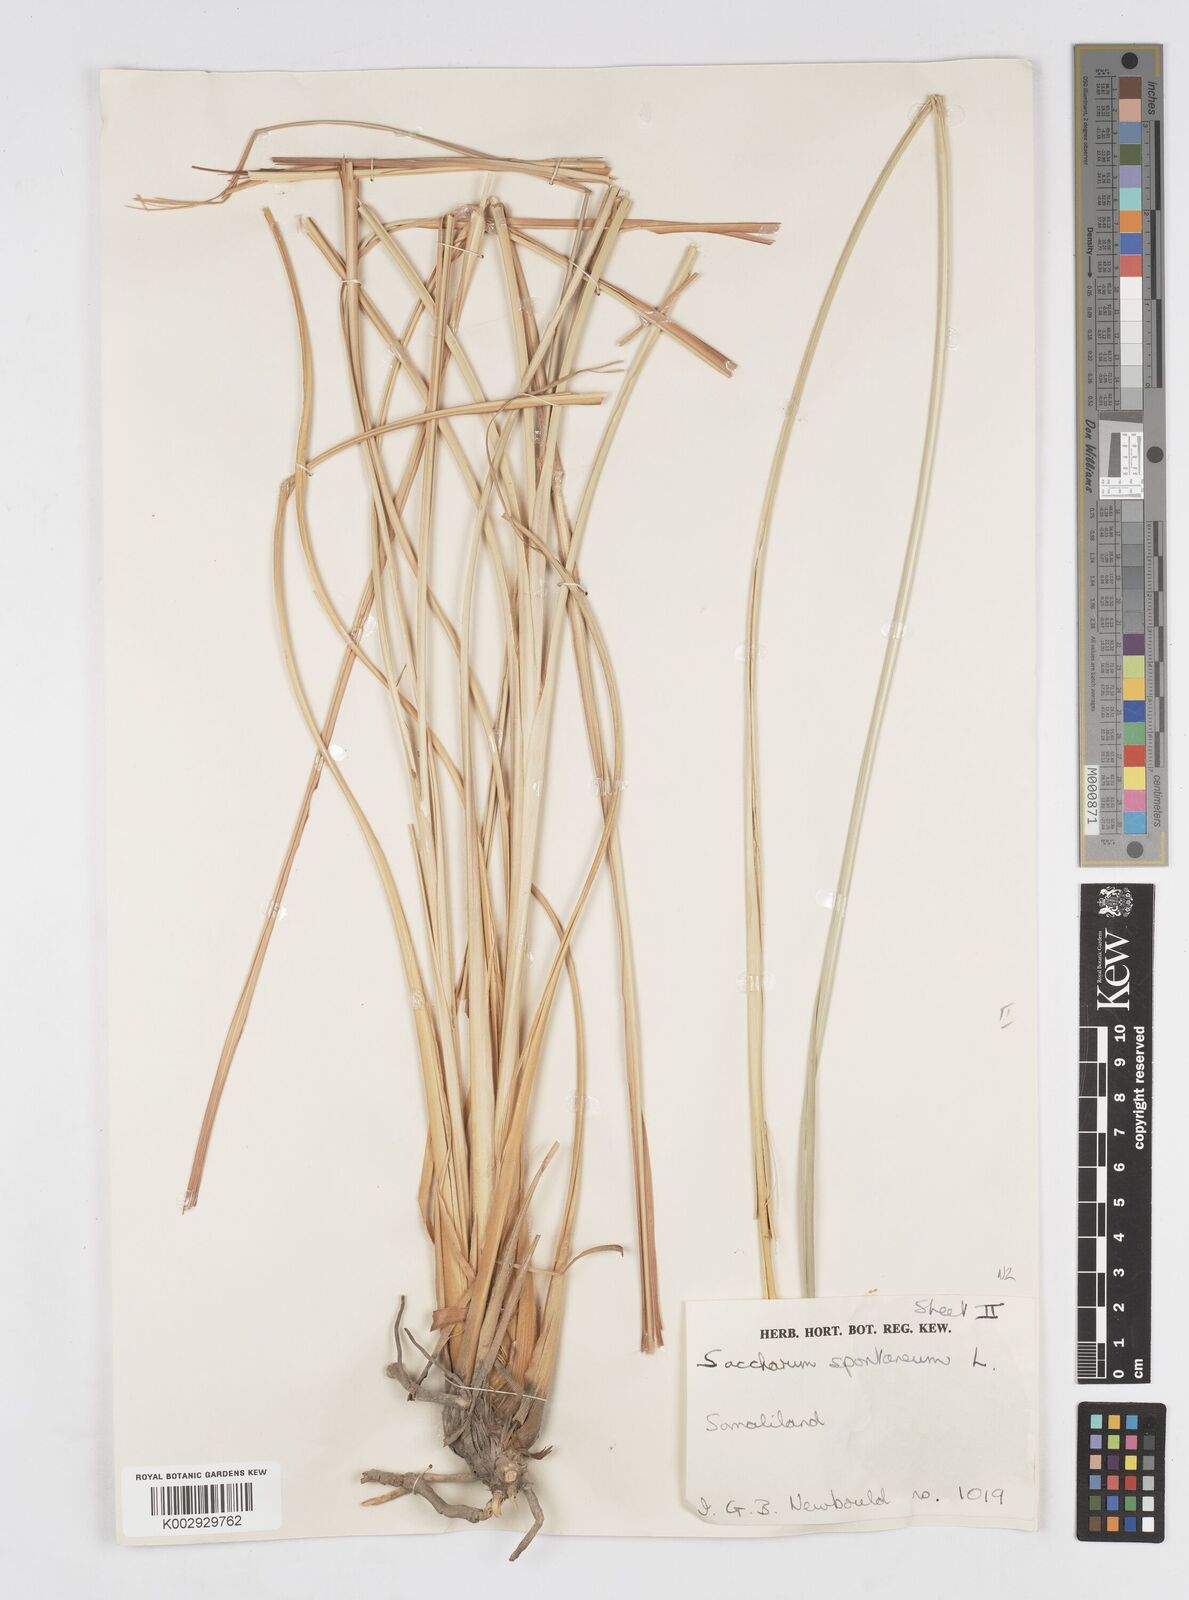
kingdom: Plantae
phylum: Tracheophyta
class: Liliopsida
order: Poales
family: Poaceae
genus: Tripidium
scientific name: Tripidium ravennae
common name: Ravenna grass
